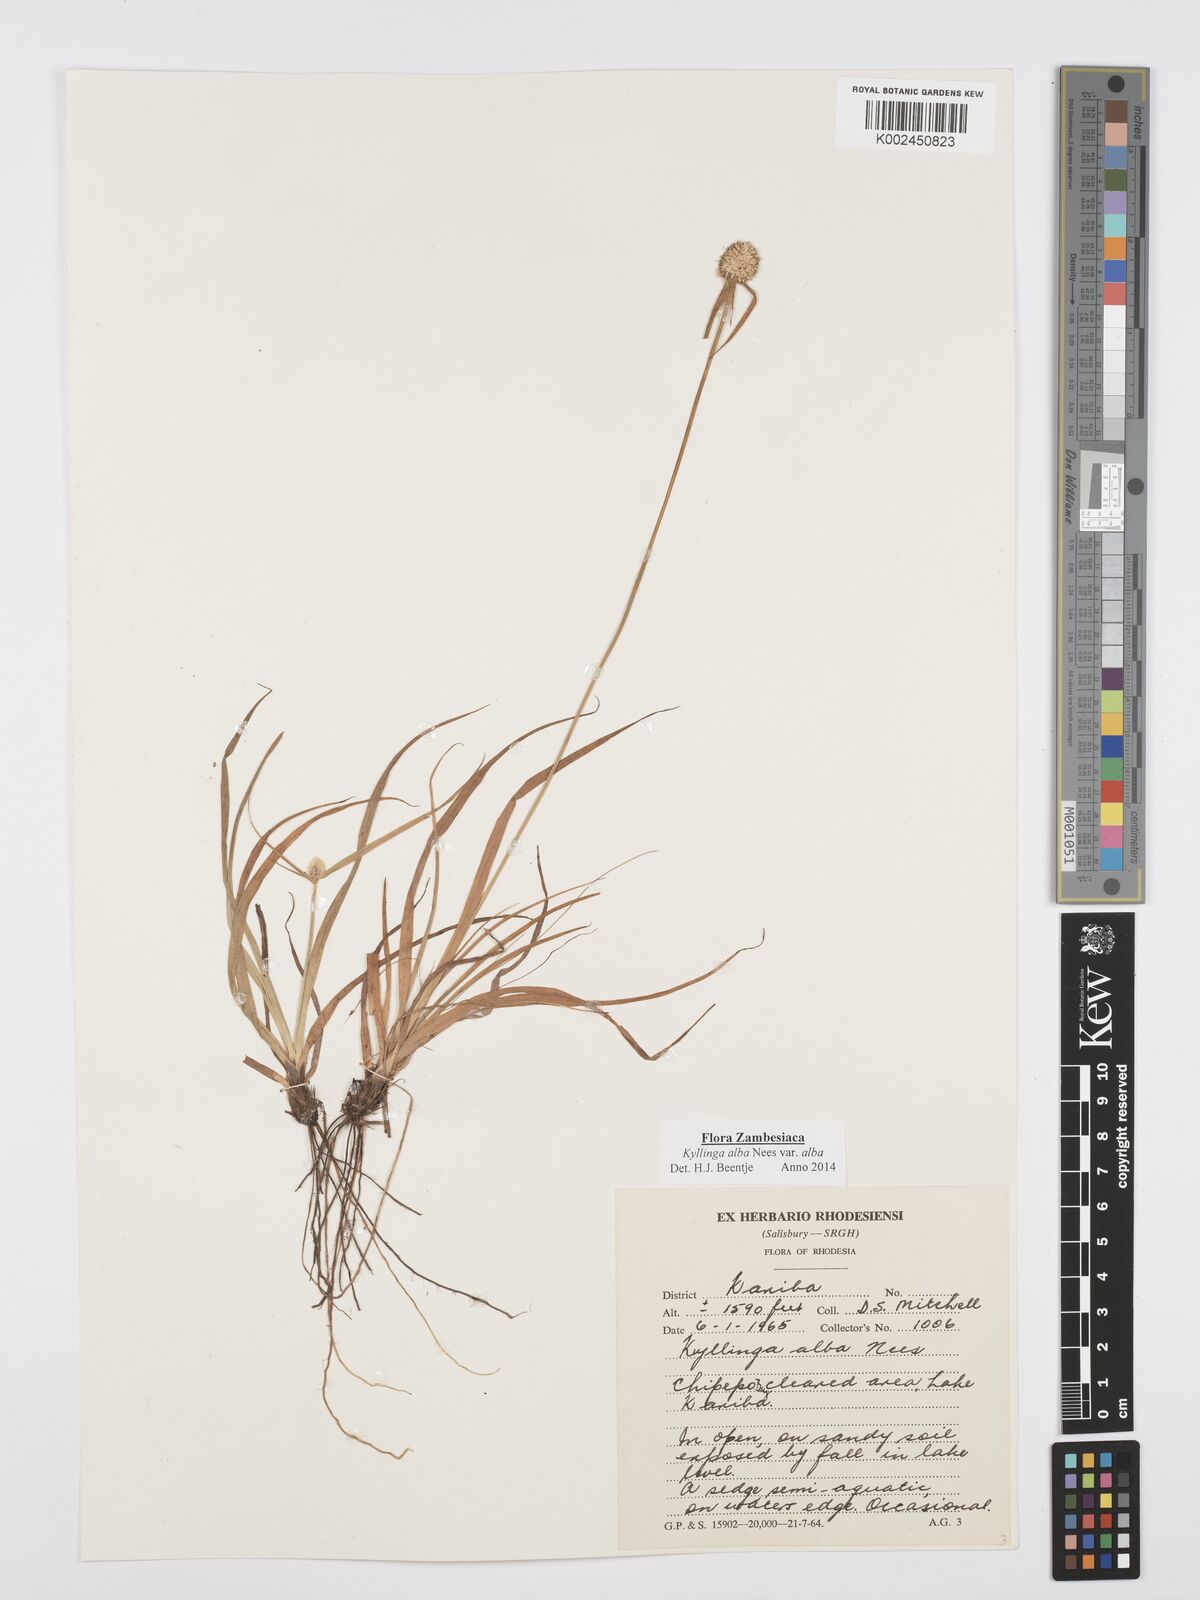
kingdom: Plantae
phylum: Tracheophyta
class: Liliopsida
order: Poales
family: Cyperaceae
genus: Cyperus
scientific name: Cyperus
